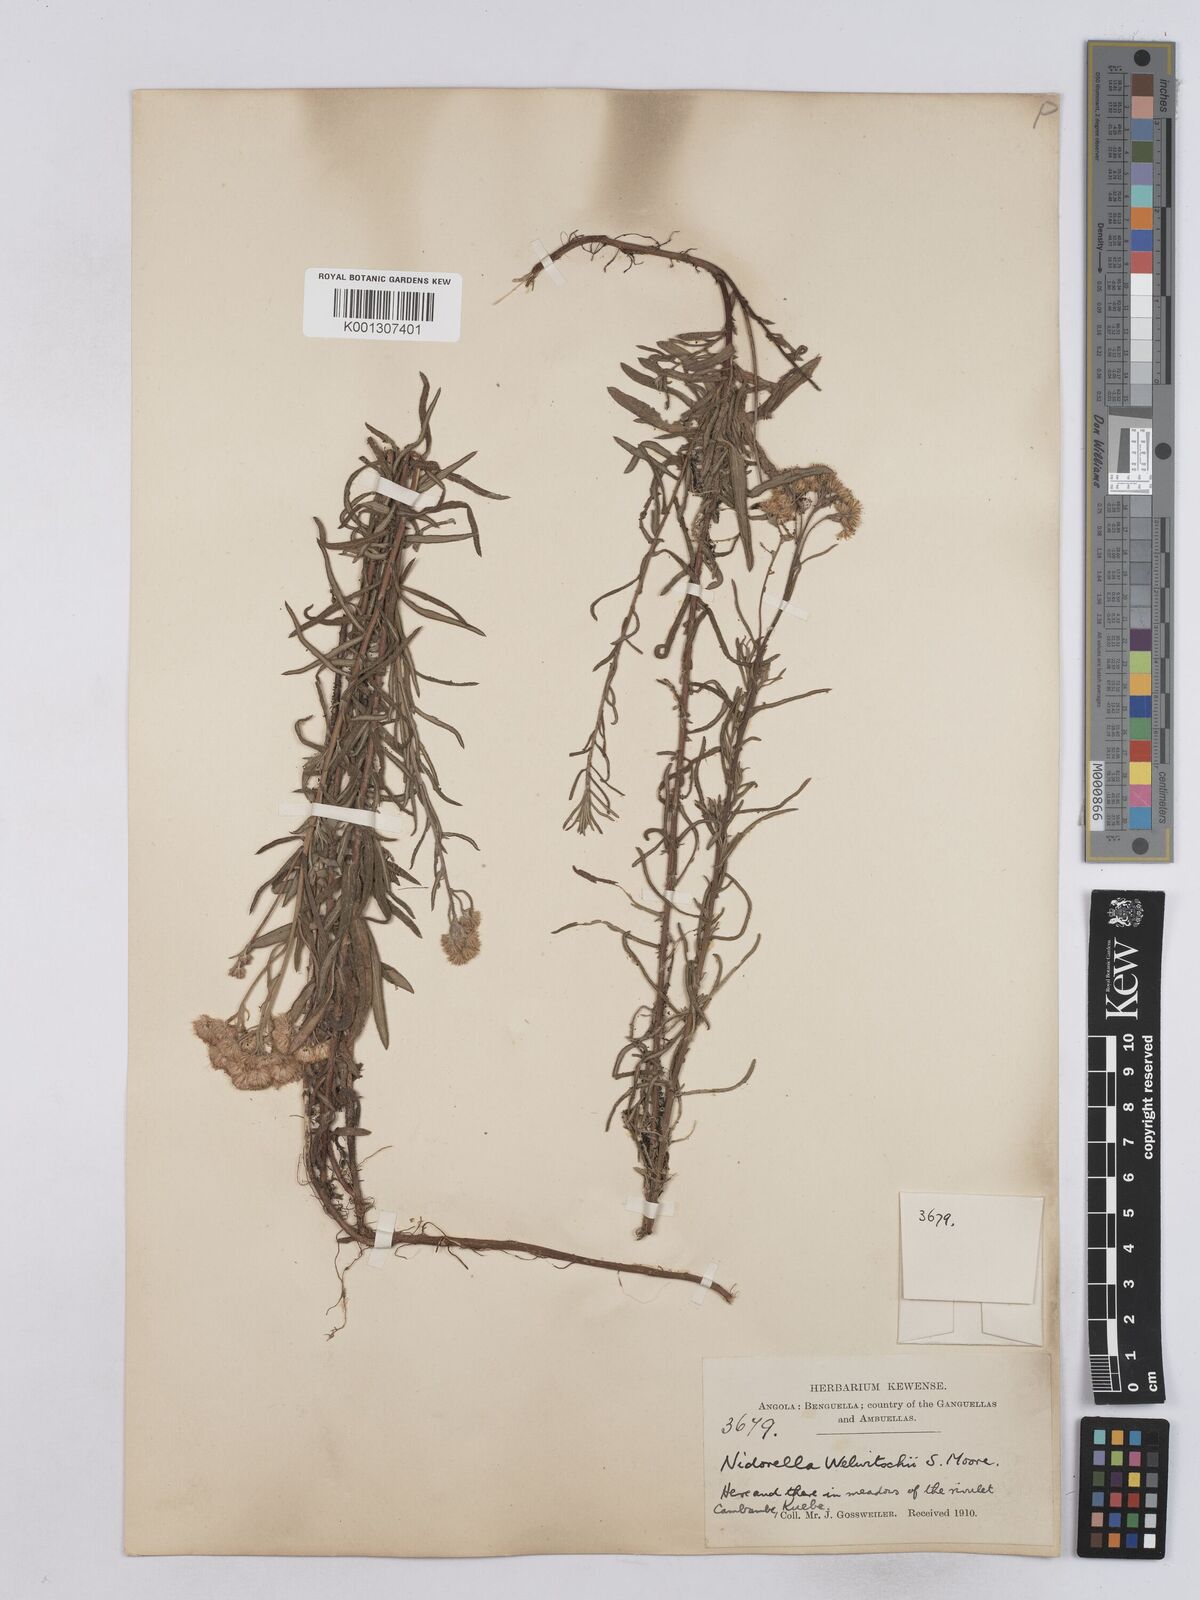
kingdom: Plantae
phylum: Tracheophyta
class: Magnoliopsida
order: Asterales
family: Asteraceae
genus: Nidorella
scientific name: Nidorella welwitschii
